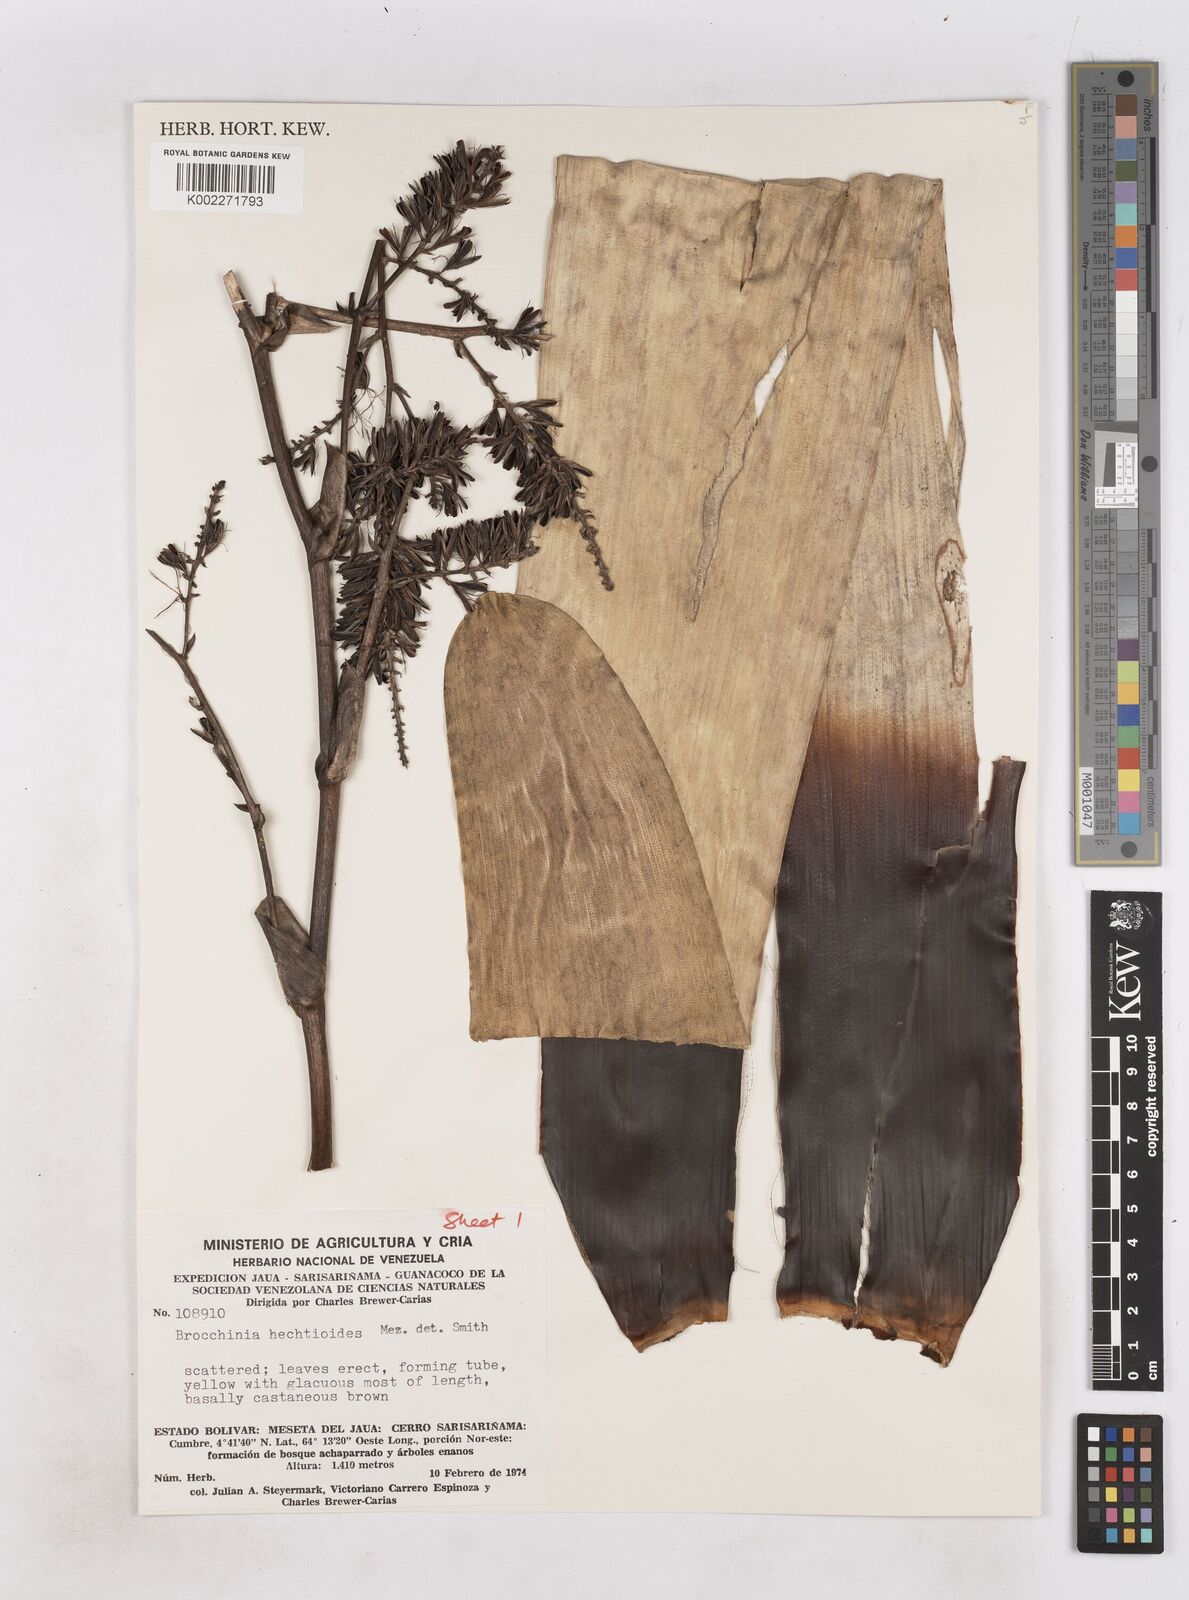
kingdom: Plantae
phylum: Tracheophyta
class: Liliopsida
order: Poales
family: Bromeliaceae
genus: Brocchinia
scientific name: Brocchinia hechtioides
